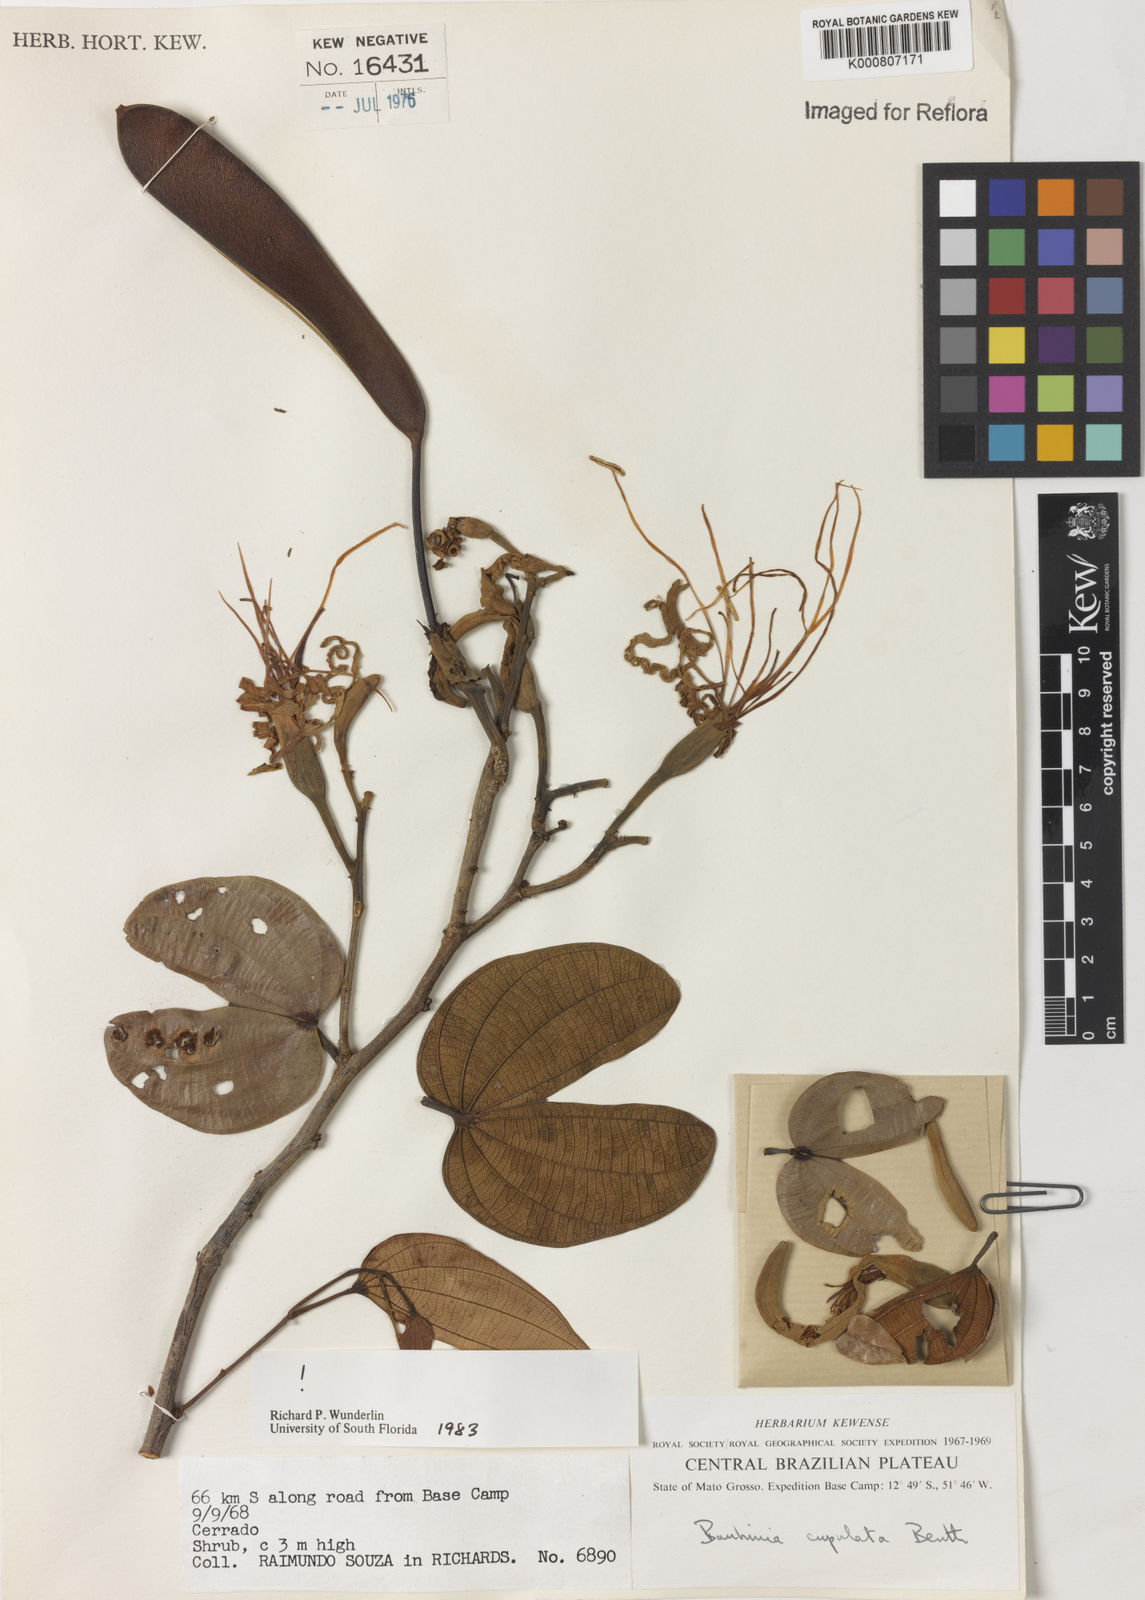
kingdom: Plantae
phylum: Tracheophyta
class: Magnoliopsida
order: Fabales
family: Fabaceae
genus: Bauhinia
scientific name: Bauhinia cupulata
